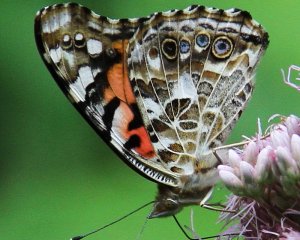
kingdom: Animalia
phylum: Arthropoda
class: Insecta
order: Lepidoptera
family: Nymphalidae
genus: Vanessa
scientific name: Vanessa cardui
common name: Painted Lady
